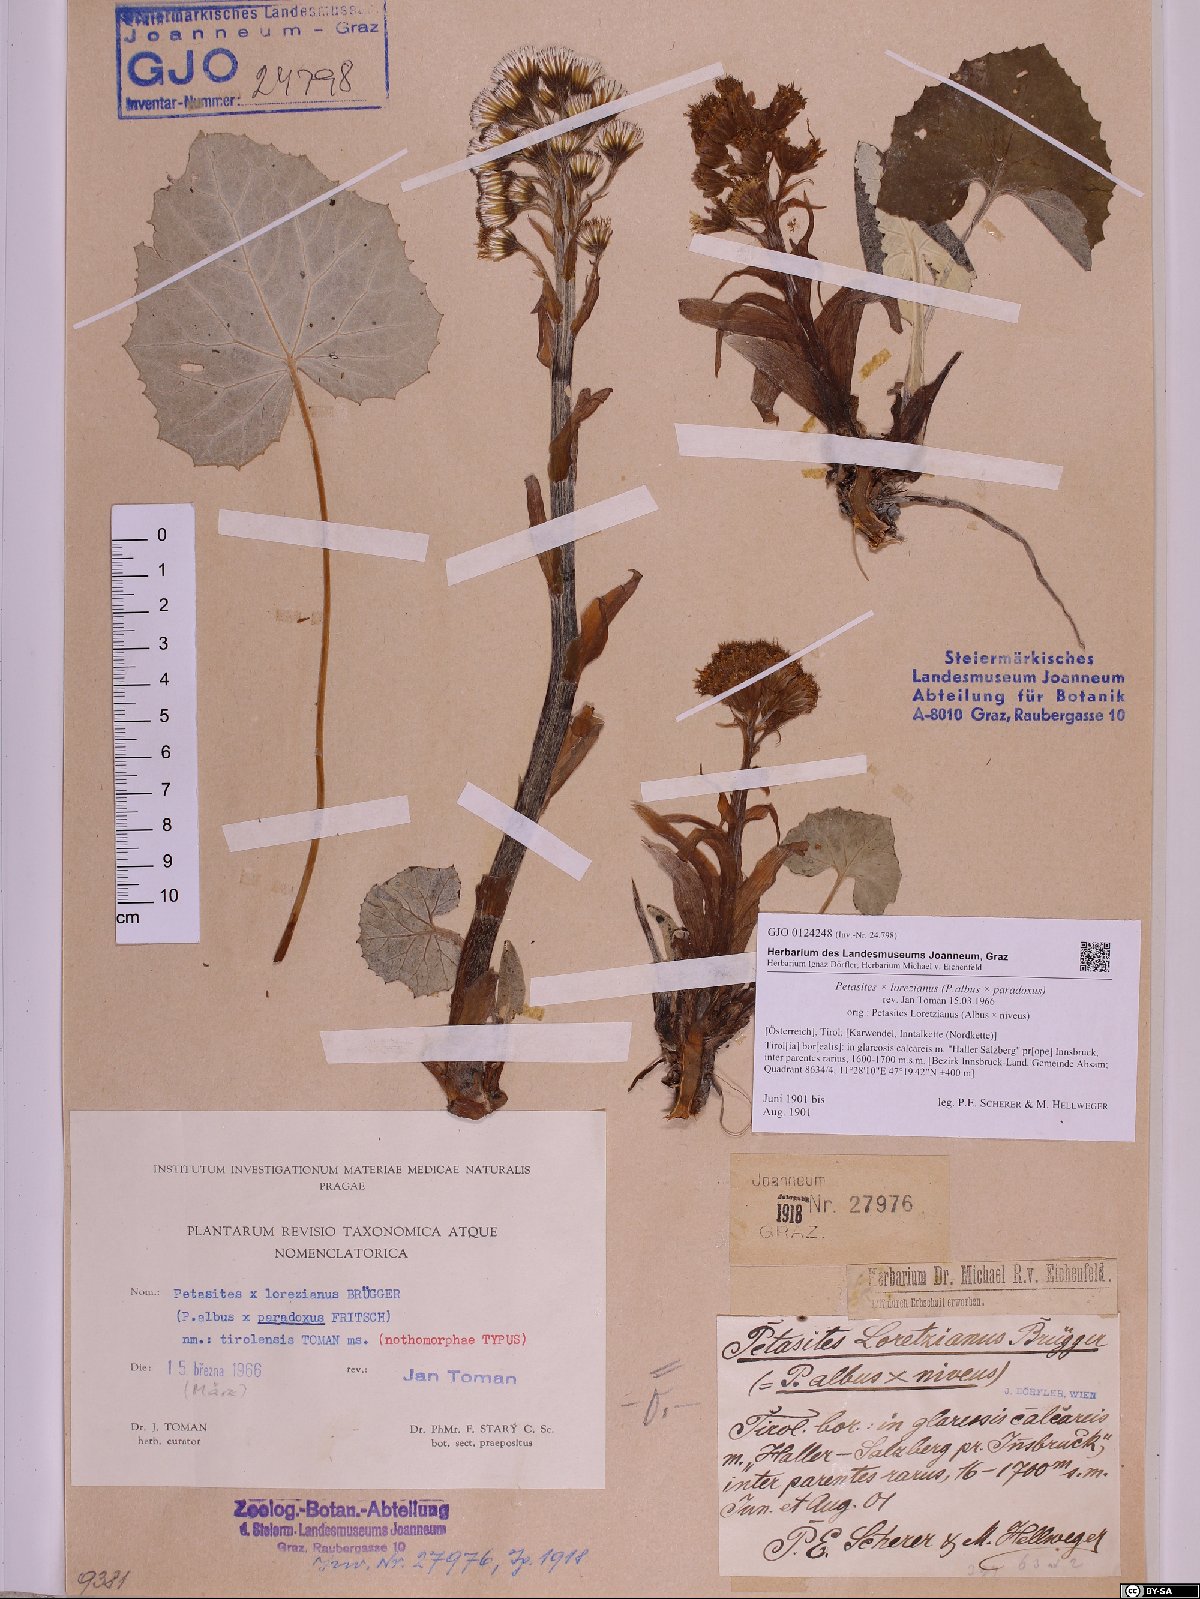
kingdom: Plantae
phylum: Tracheophyta
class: Magnoliopsida
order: Asterales
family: Asteraceae
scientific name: Asteraceae
